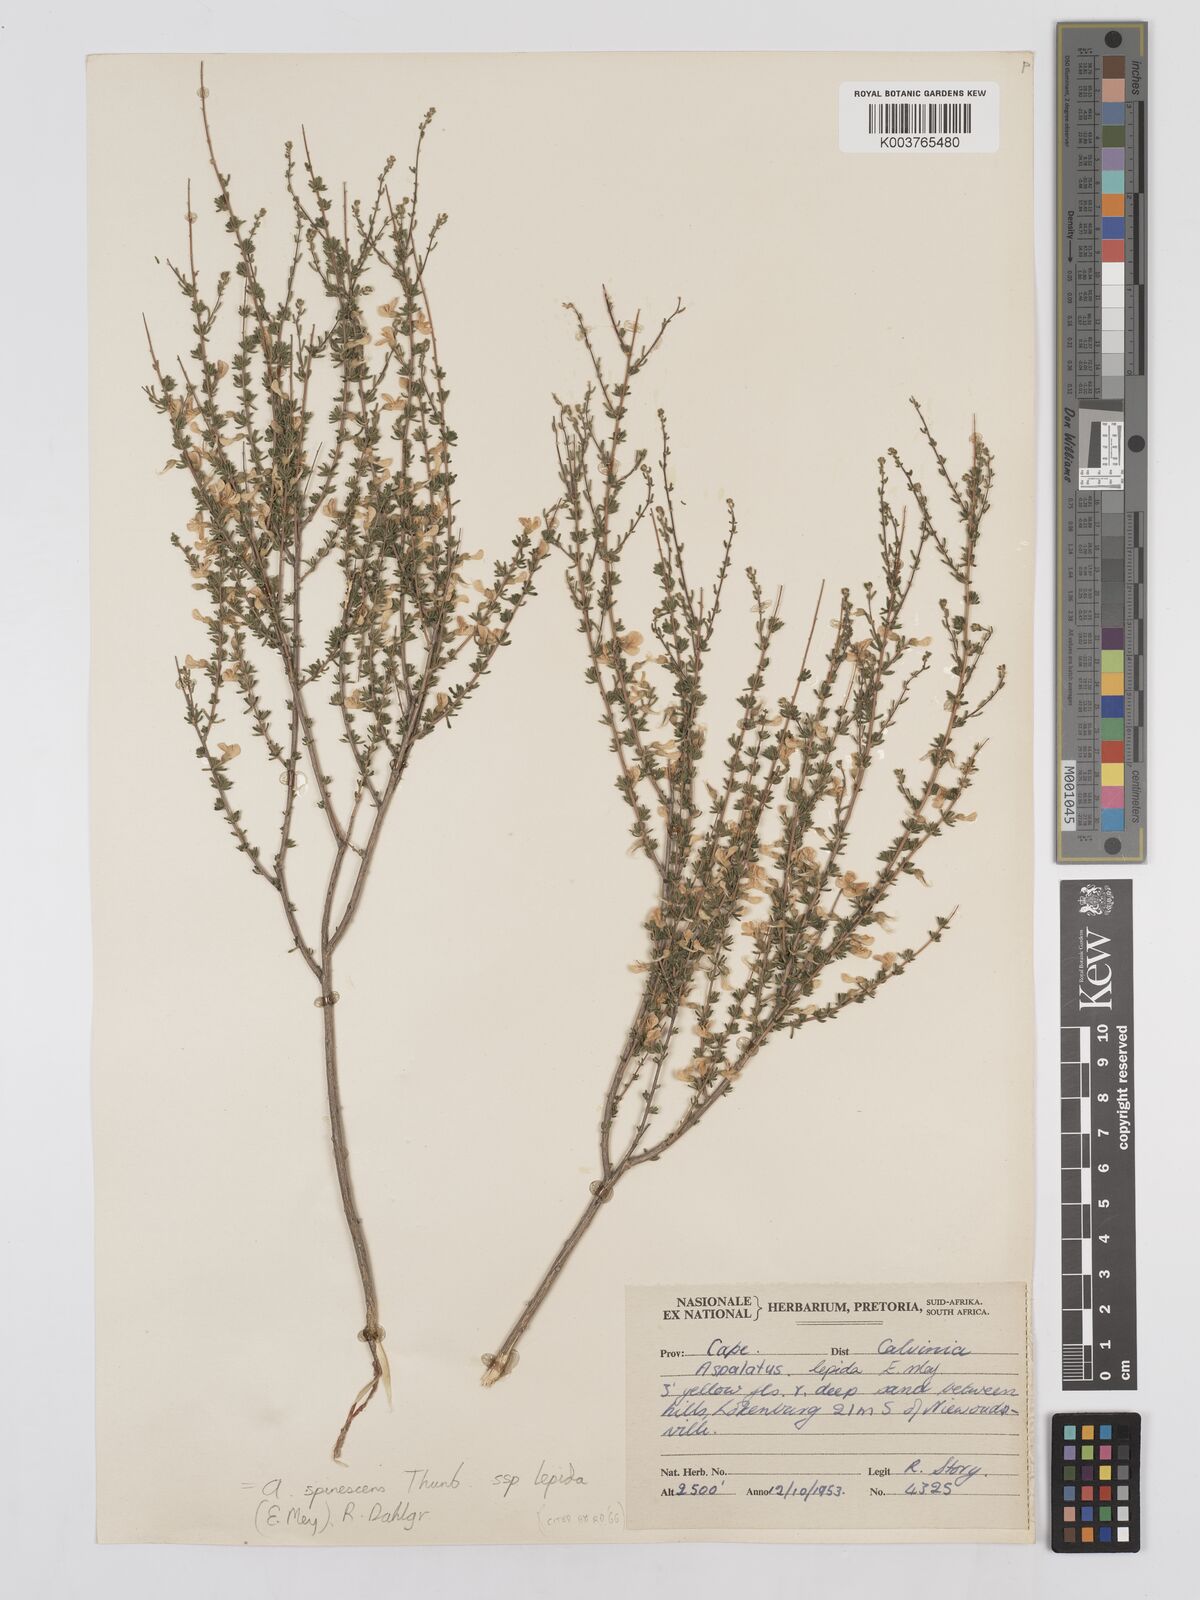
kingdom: Plantae
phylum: Tracheophyta
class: Magnoliopsida
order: Fabales
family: Fabaceae
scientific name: Fabaceae
